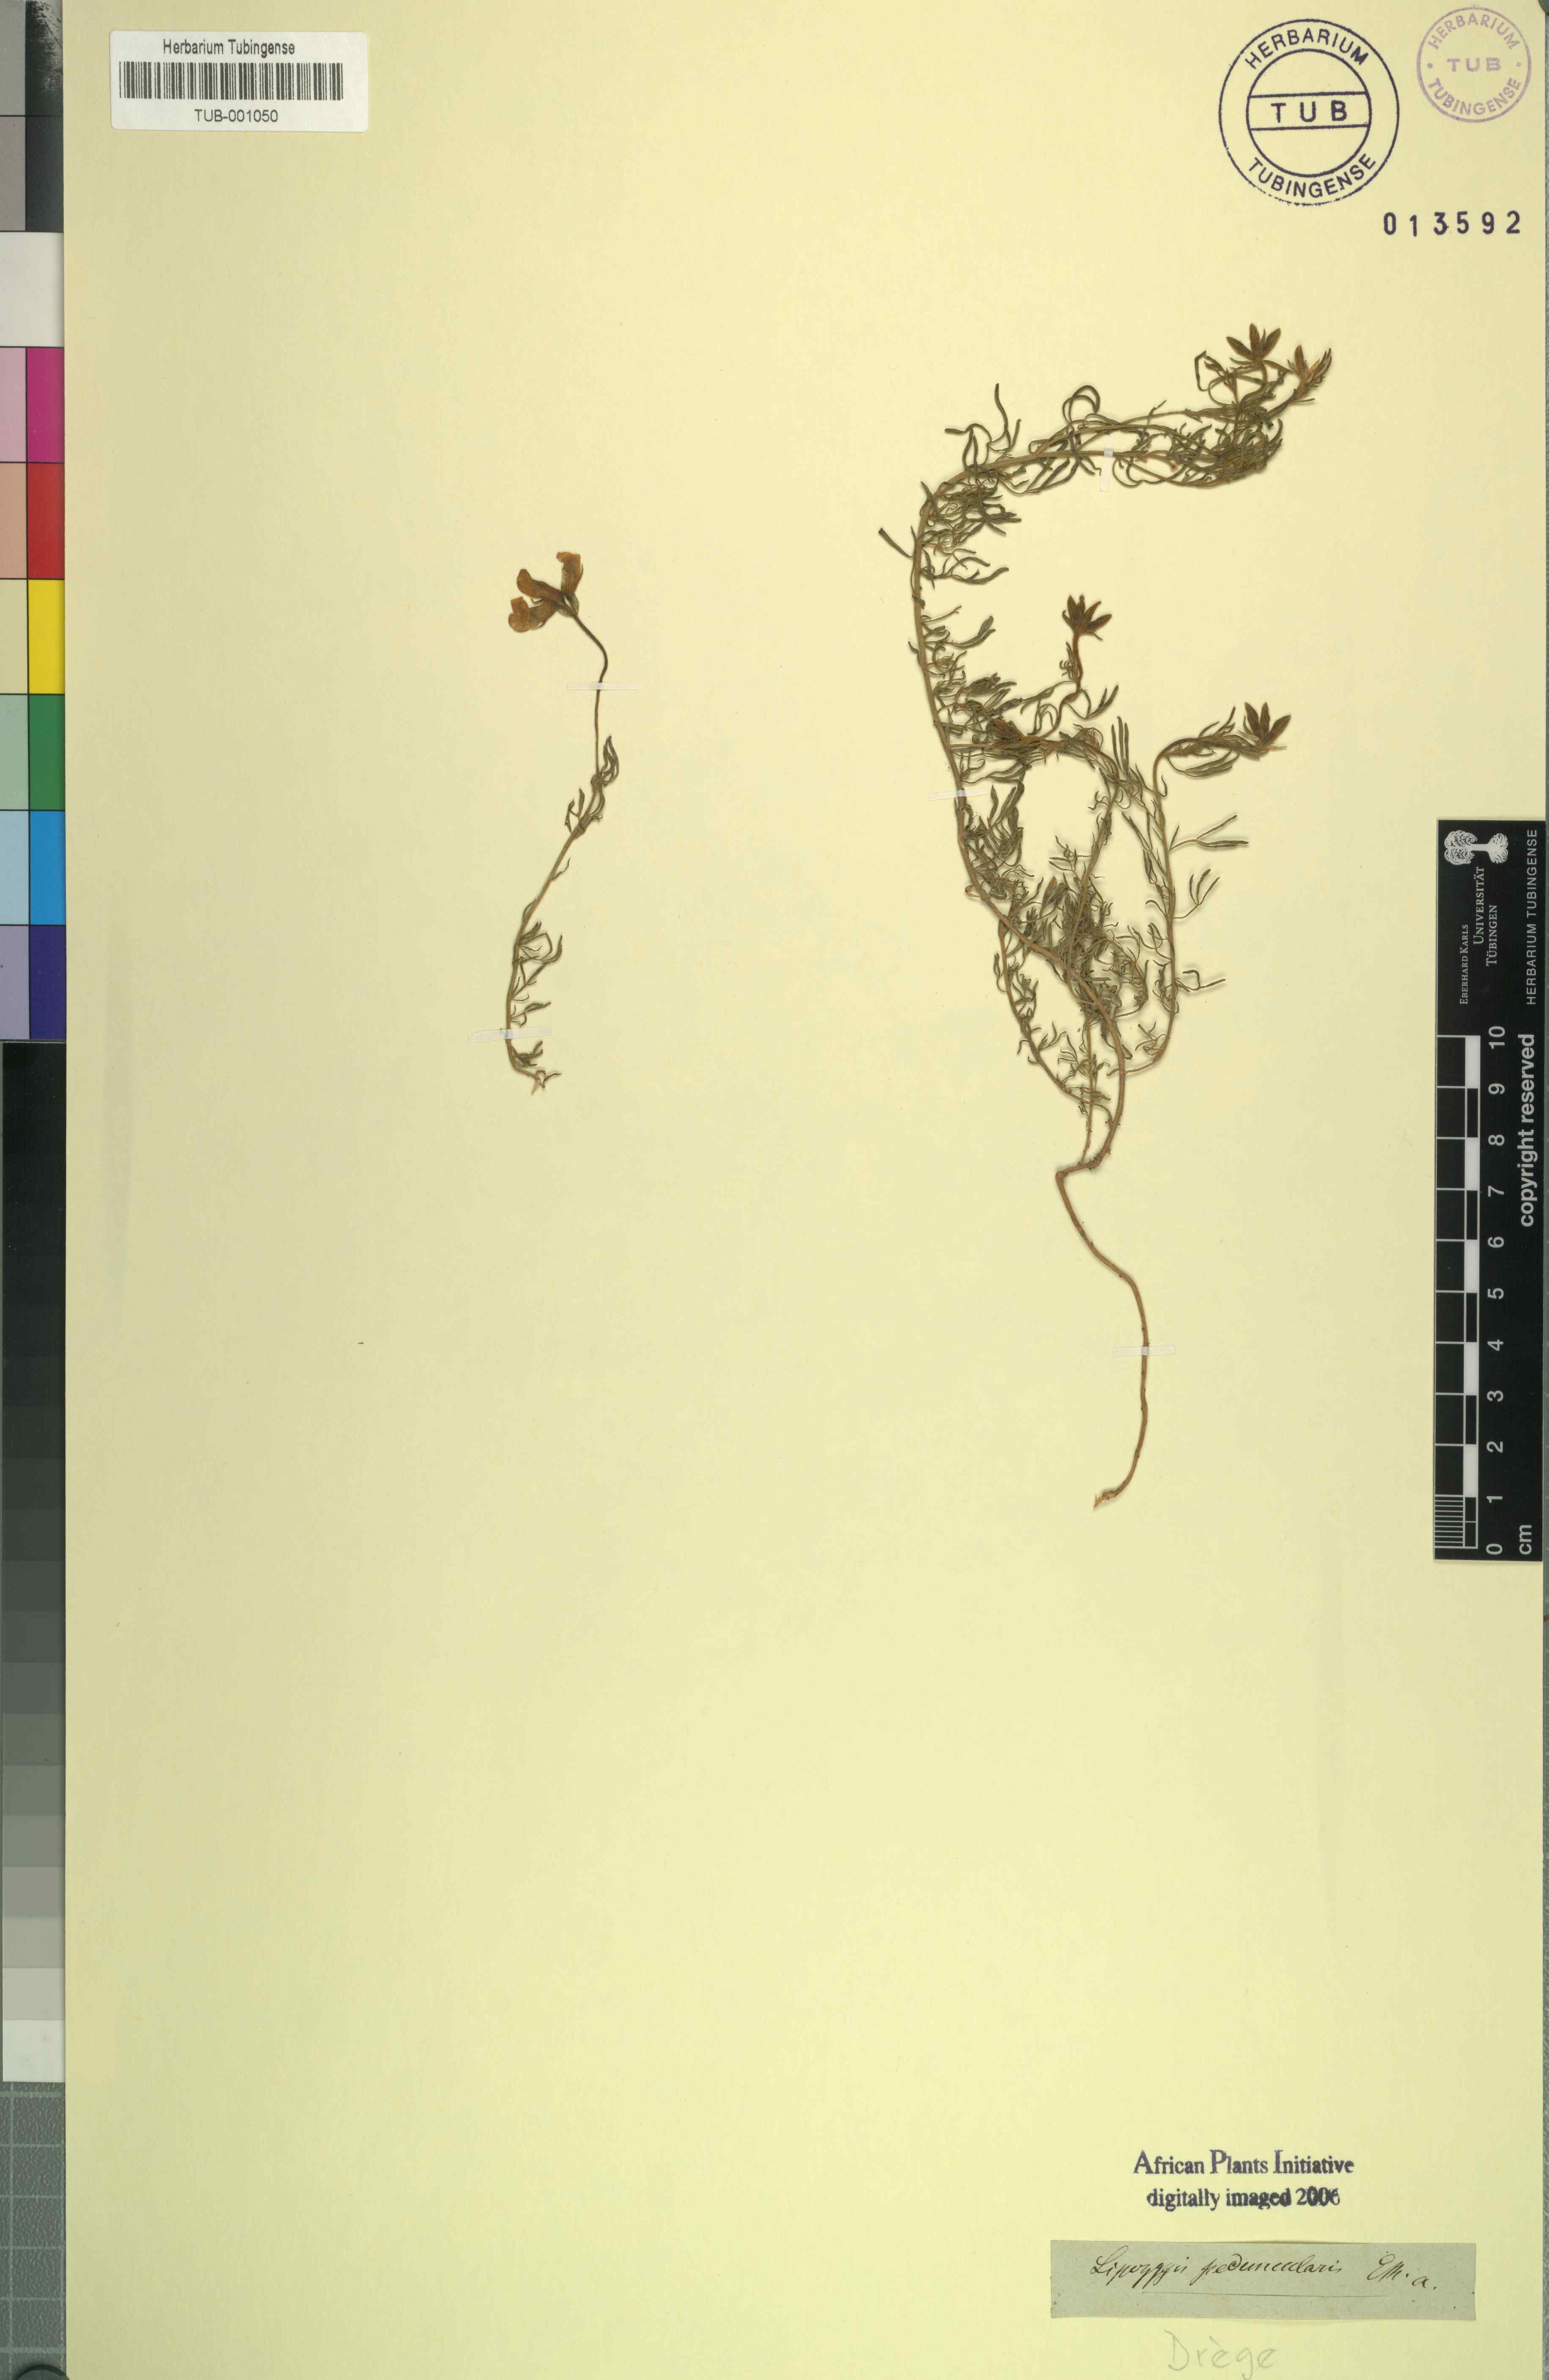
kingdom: Plantae
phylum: Tracheophyta
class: Magnoliopsida
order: Fabales
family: Fabaceae
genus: Lotononis
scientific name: Lotononis involucrata
